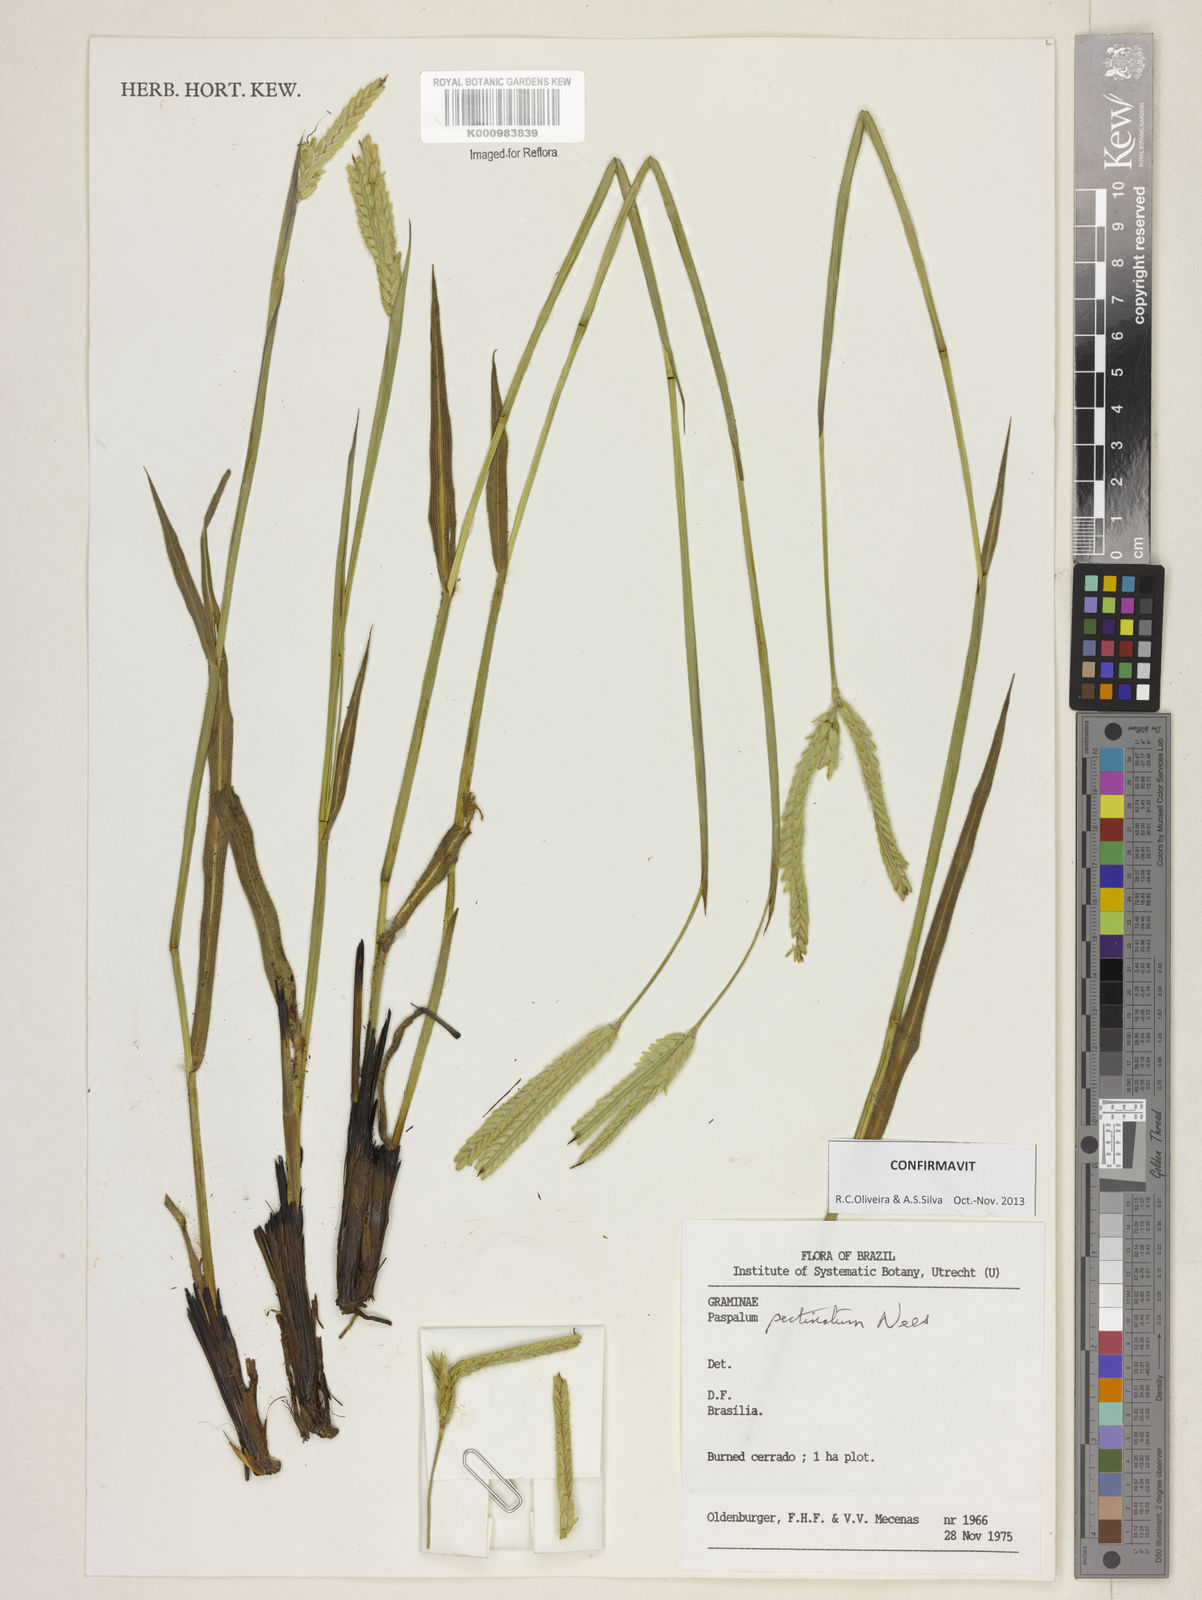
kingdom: Plantae
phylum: Tracheophyta
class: Liliopsida
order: Poales
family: Poaceae
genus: Paspalum
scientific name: Paspalum
